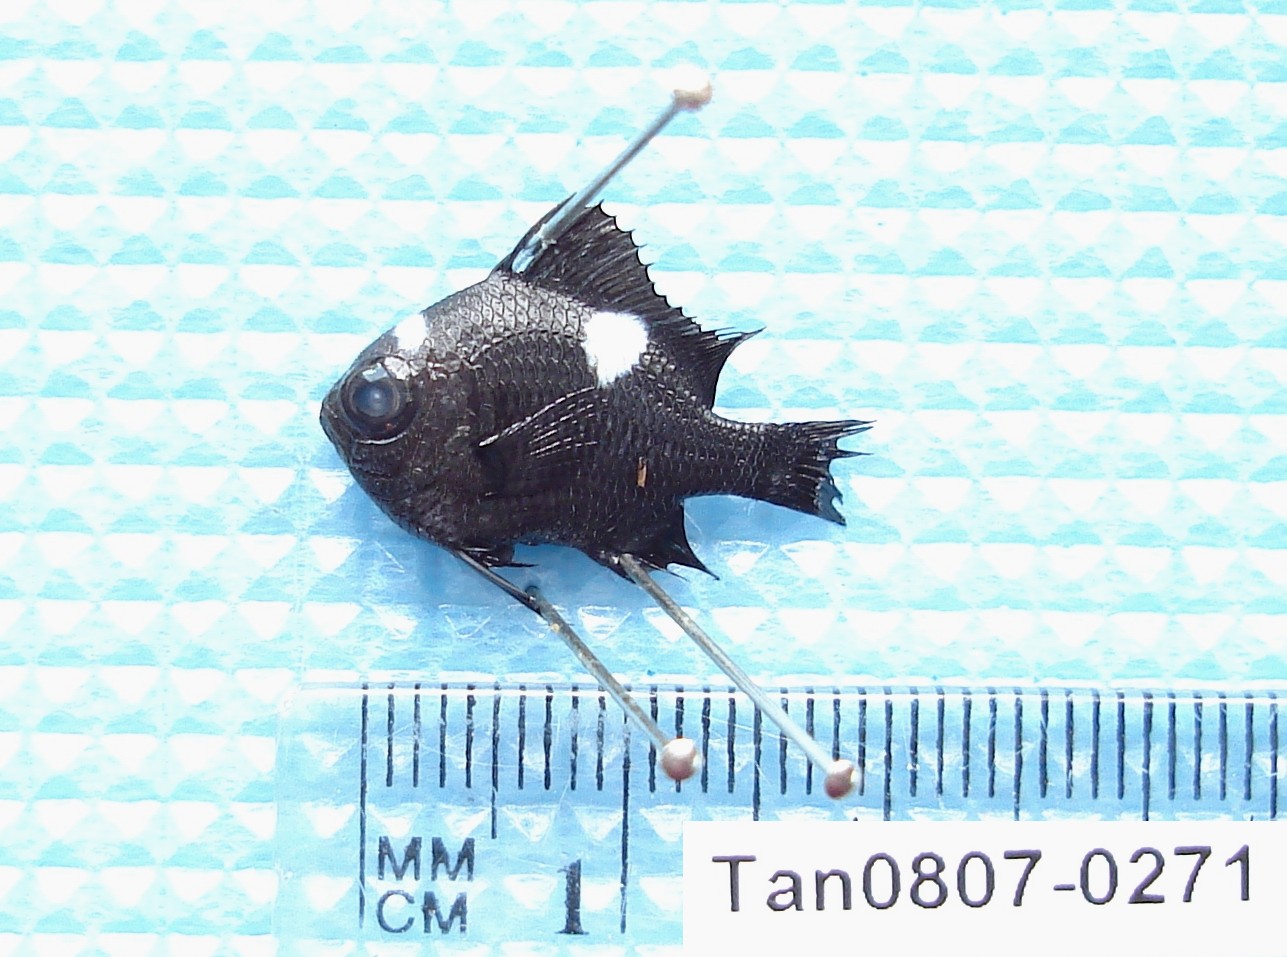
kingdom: Animalia
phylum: Chordata
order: Perciformes
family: Pomacentridae
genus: Dascyllus
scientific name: Dascyllus trimaculatus
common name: Threespot dascyllus
